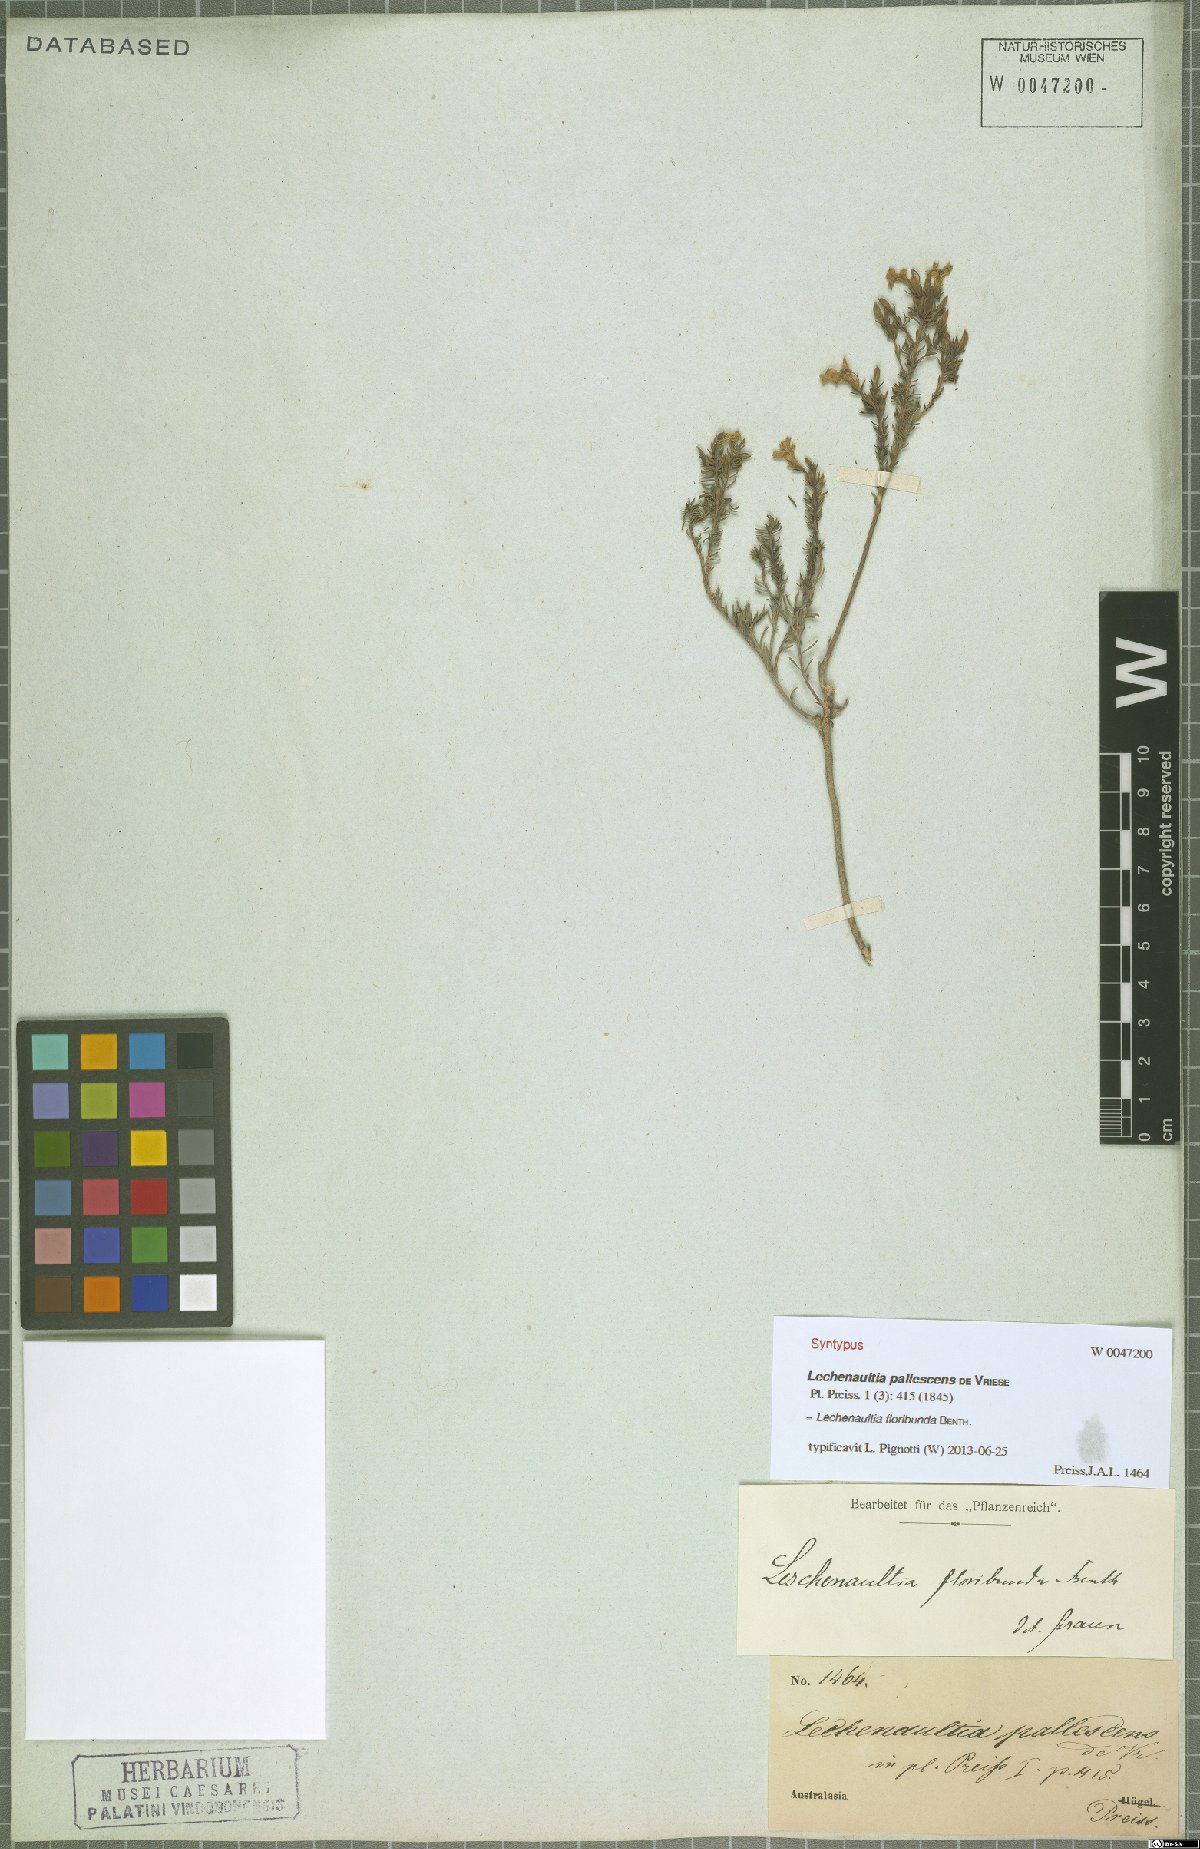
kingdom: Plantae
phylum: Tracheophyta
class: Magnoliopsida
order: Asterales
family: Goodeniaceae
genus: Lechenaultia
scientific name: Lechenaultia floribunda
